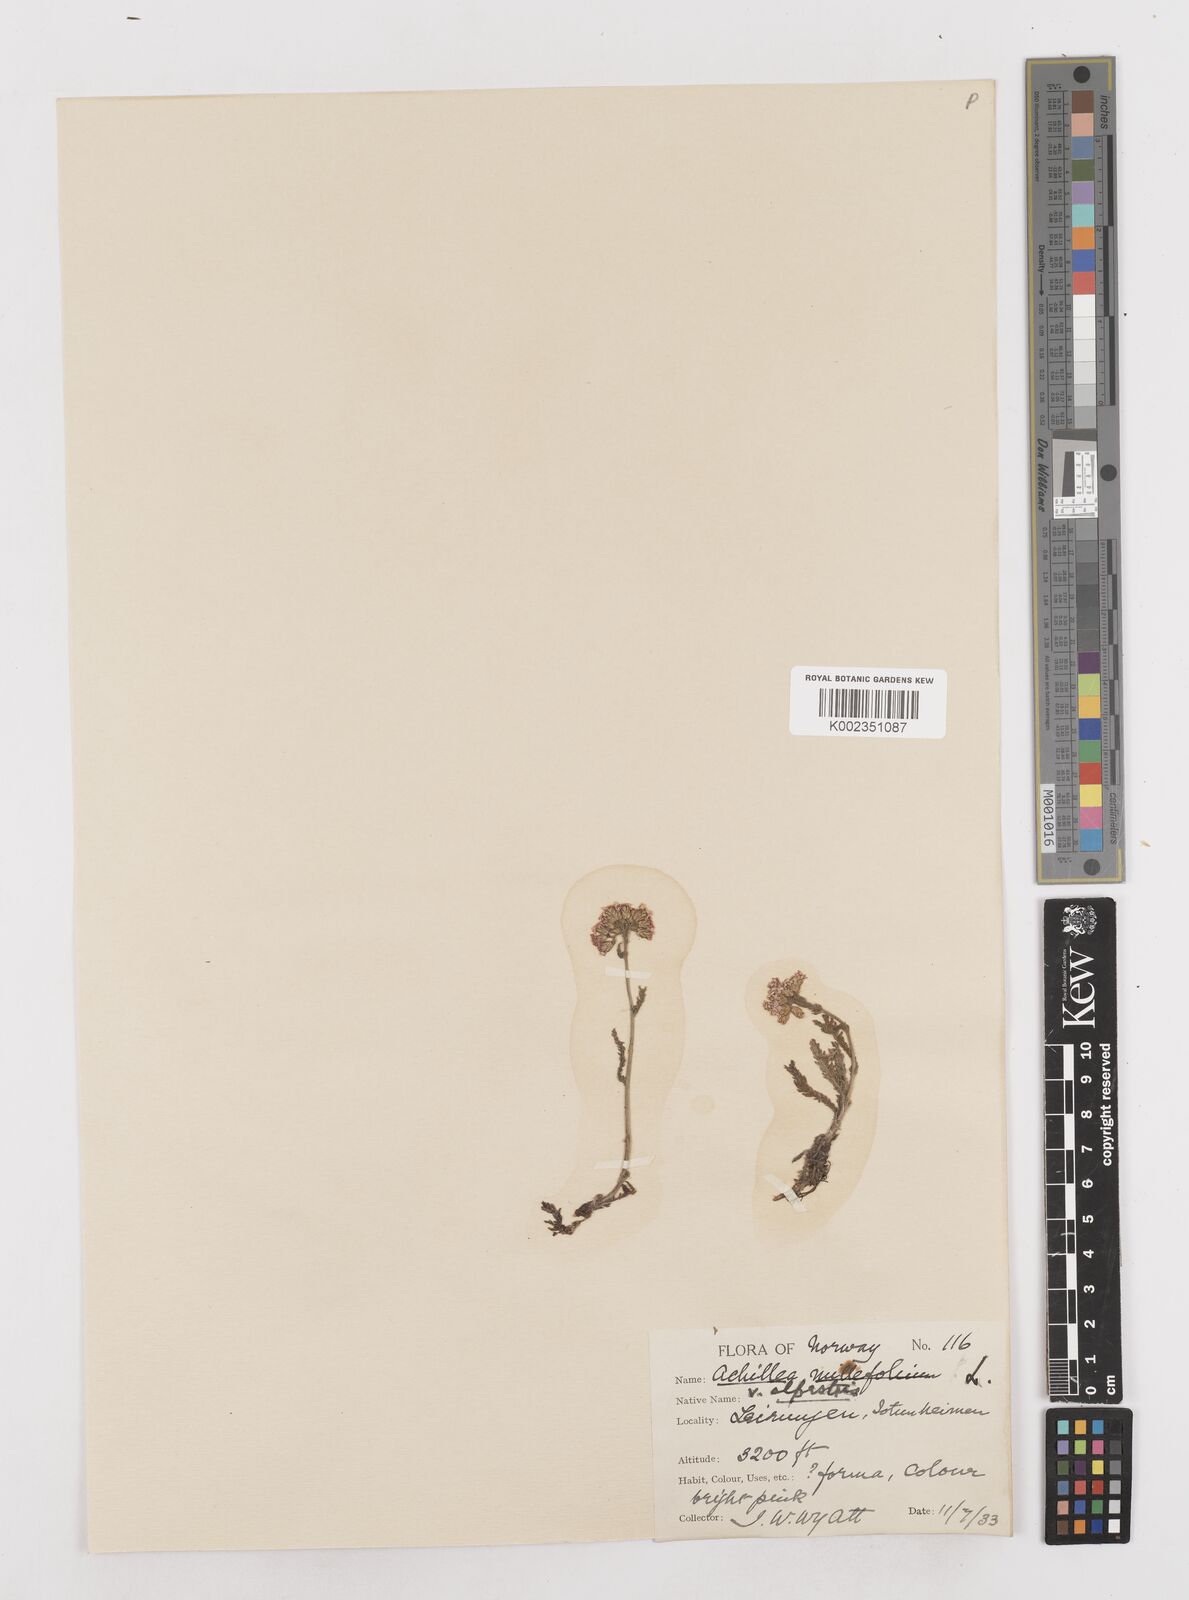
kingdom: Plantae
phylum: Tracheophyta
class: Magnoliopsida
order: Asterales
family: Asteraceae
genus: Achillea
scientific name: Achillea millefolium
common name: Yarrow
